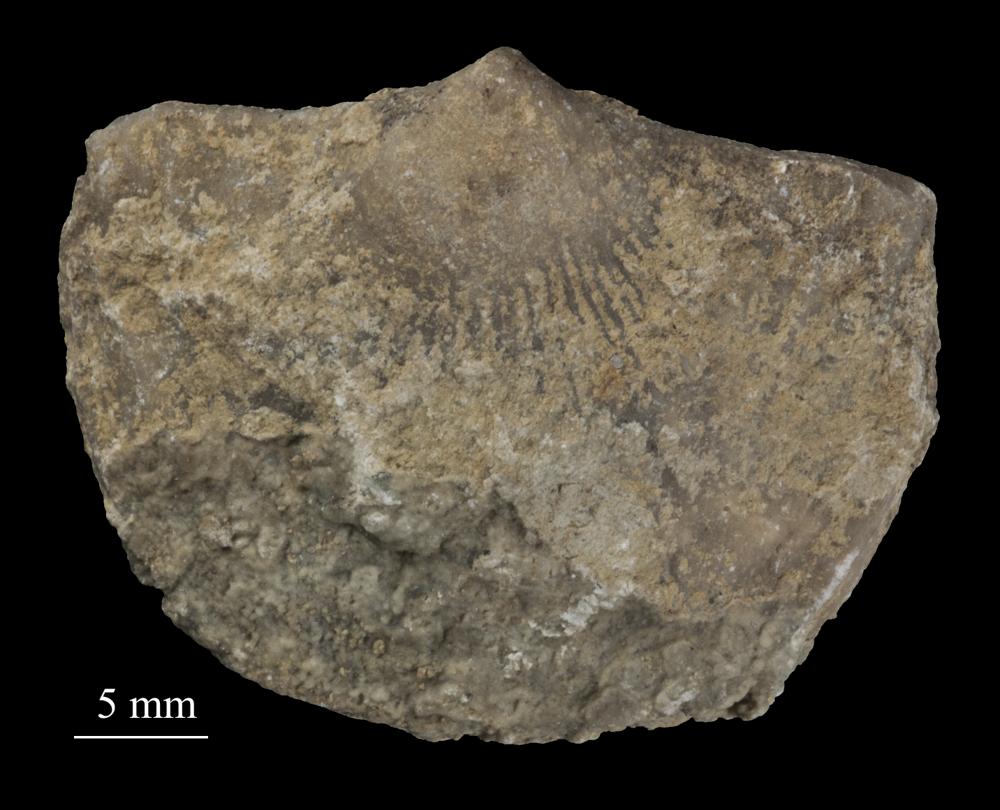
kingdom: Animalia
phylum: Brachiopoda
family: Gonambonitidae
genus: Estlandia
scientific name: Estlandia Orthisina marginata
